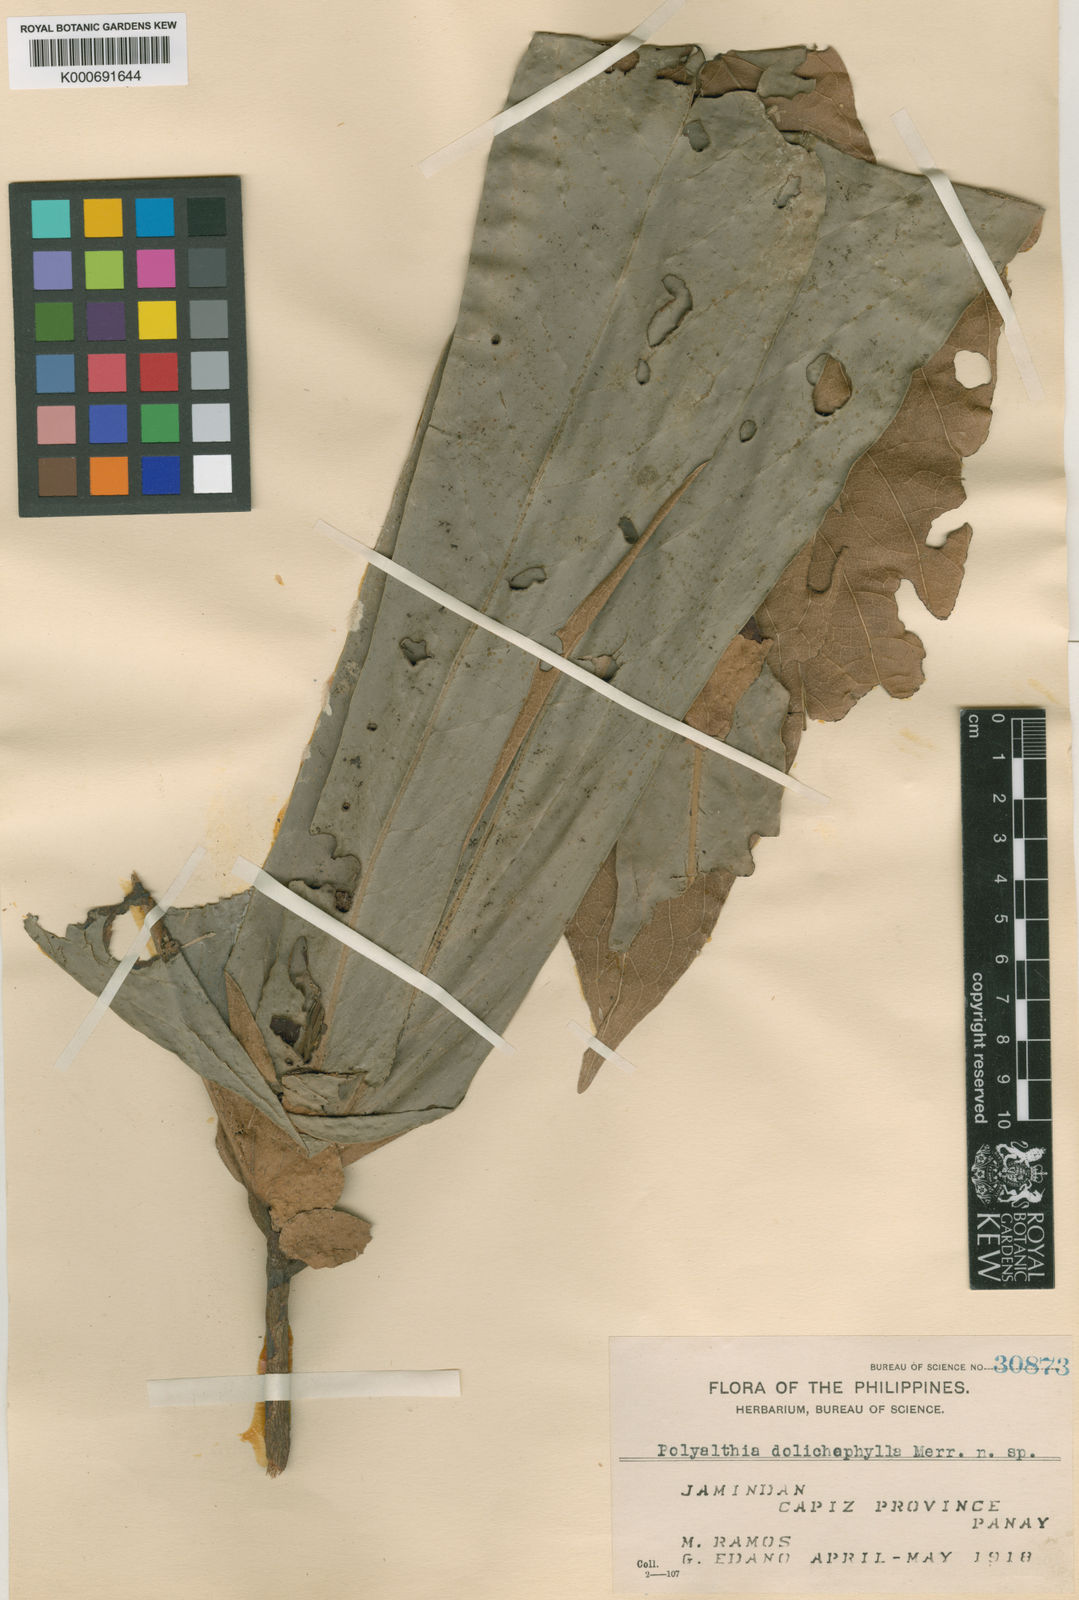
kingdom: Plantae
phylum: Tracheophyta
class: Magnoliopsida
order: Magnoliales
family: Annonaceae
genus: Polyalthia
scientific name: Polyalthia insignis
